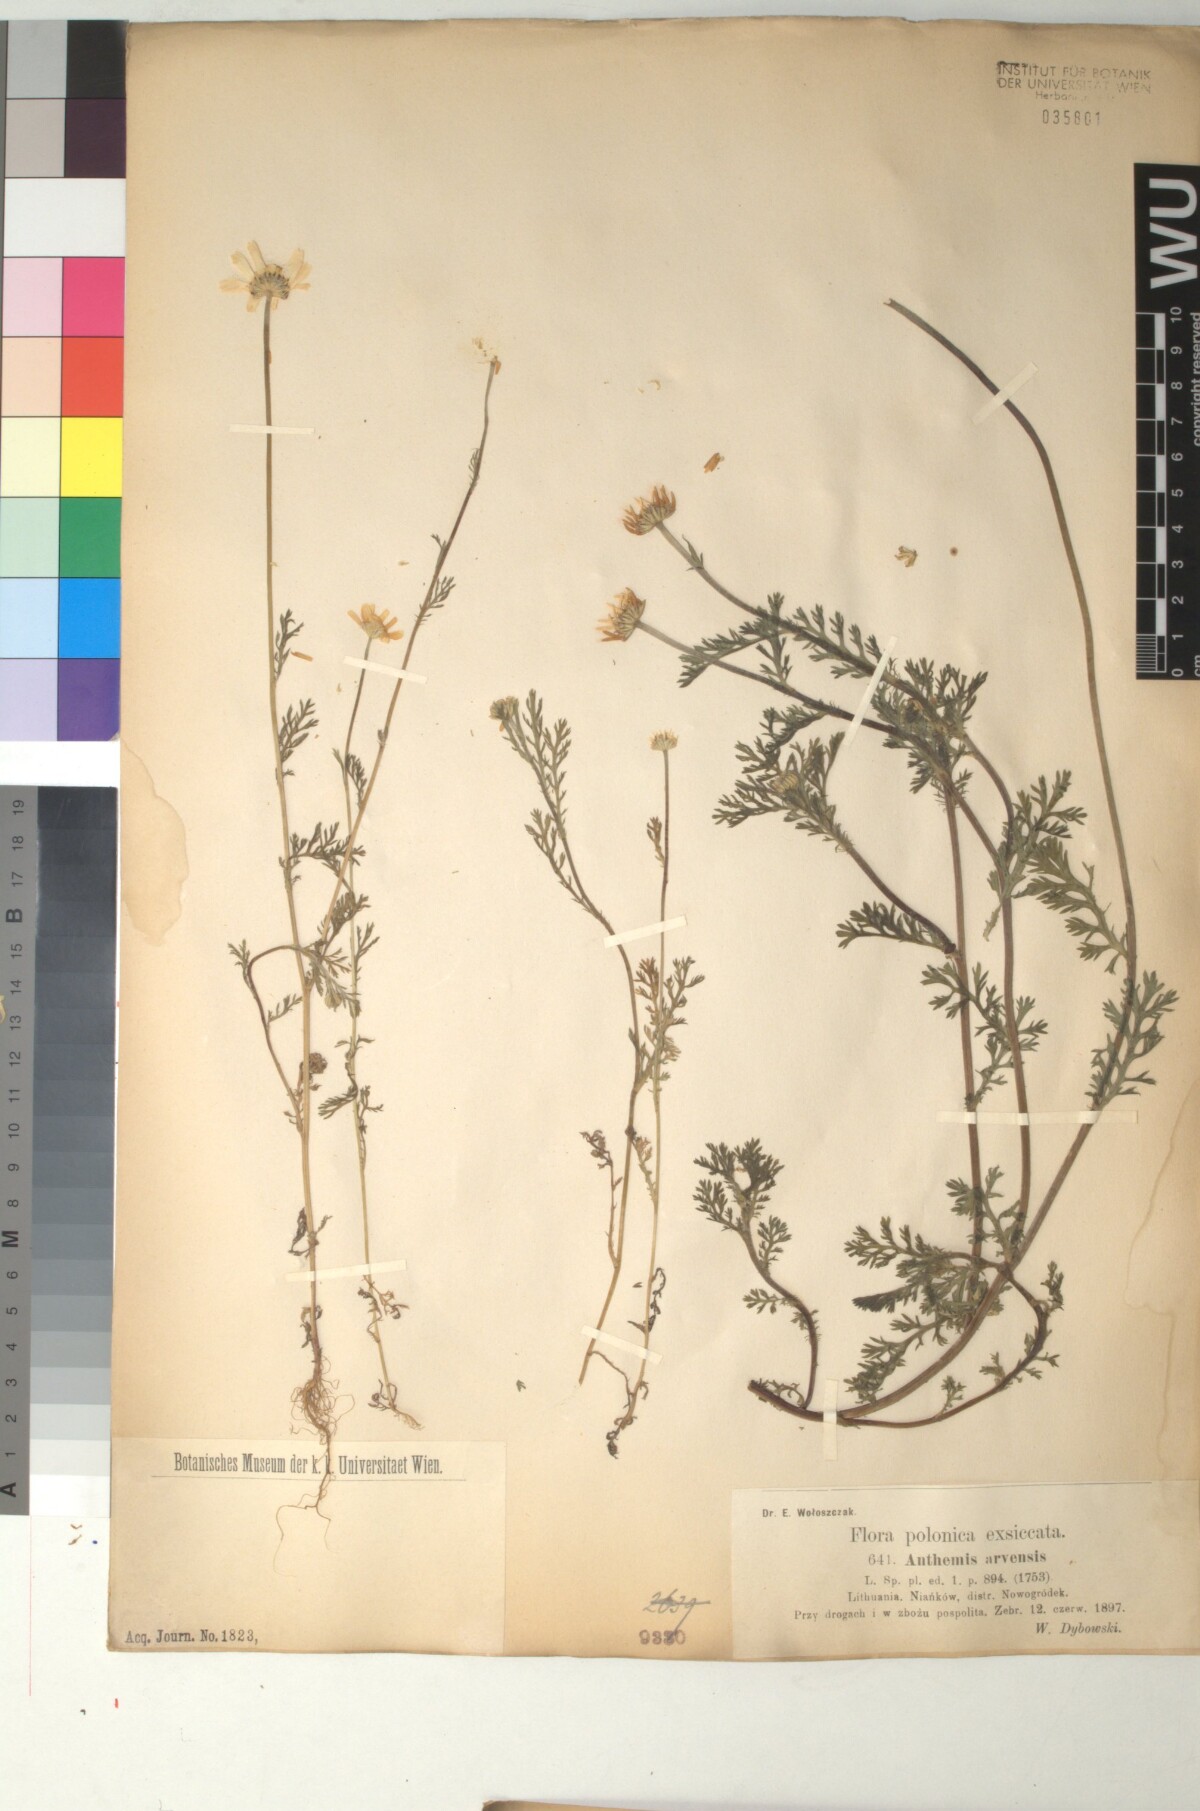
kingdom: Plantae
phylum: Tracheophyta
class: Magnoliopsida
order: Asterales
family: Asteraceae
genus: Anthemis
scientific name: Anthemis arvensis
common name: Corn chamomile
